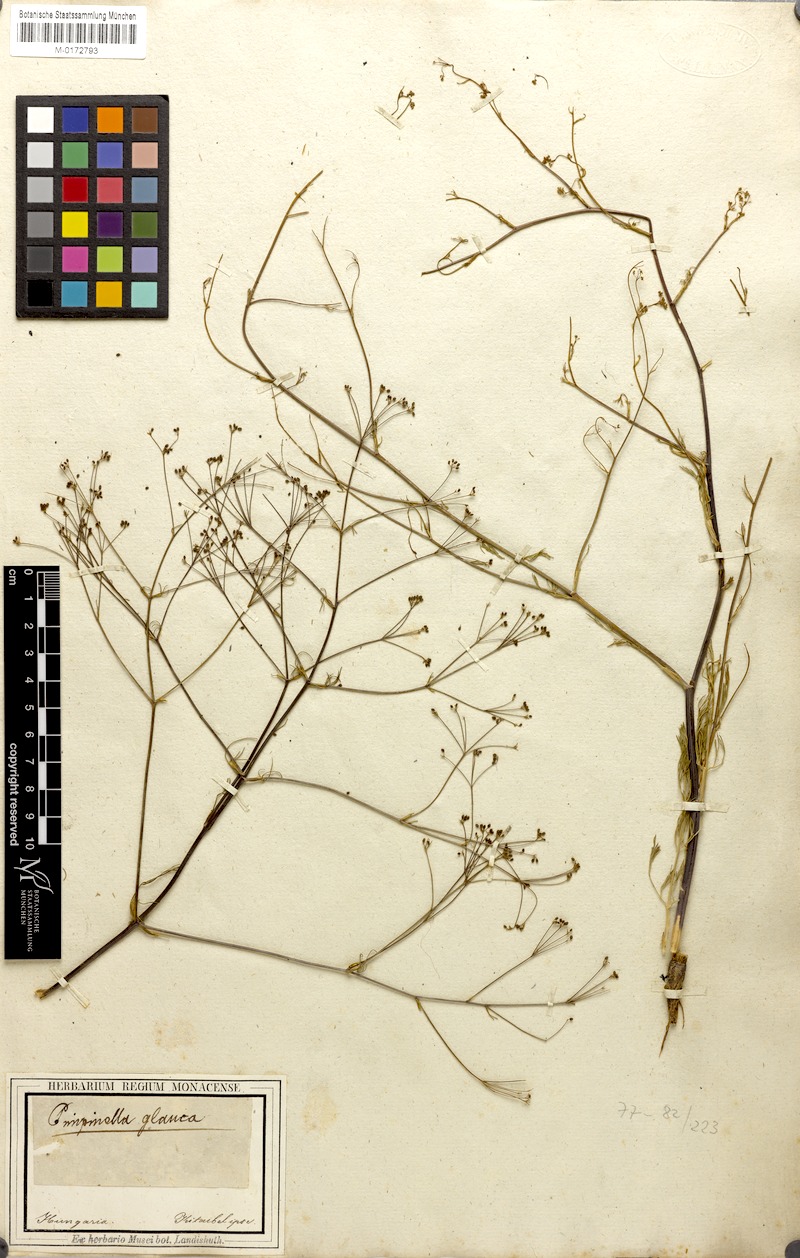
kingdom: Plantae
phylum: Tracheophyta
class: Magnoliopsida
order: Apiales
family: Apiaceae
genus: Trinia
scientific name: Trinia kitaibelii
